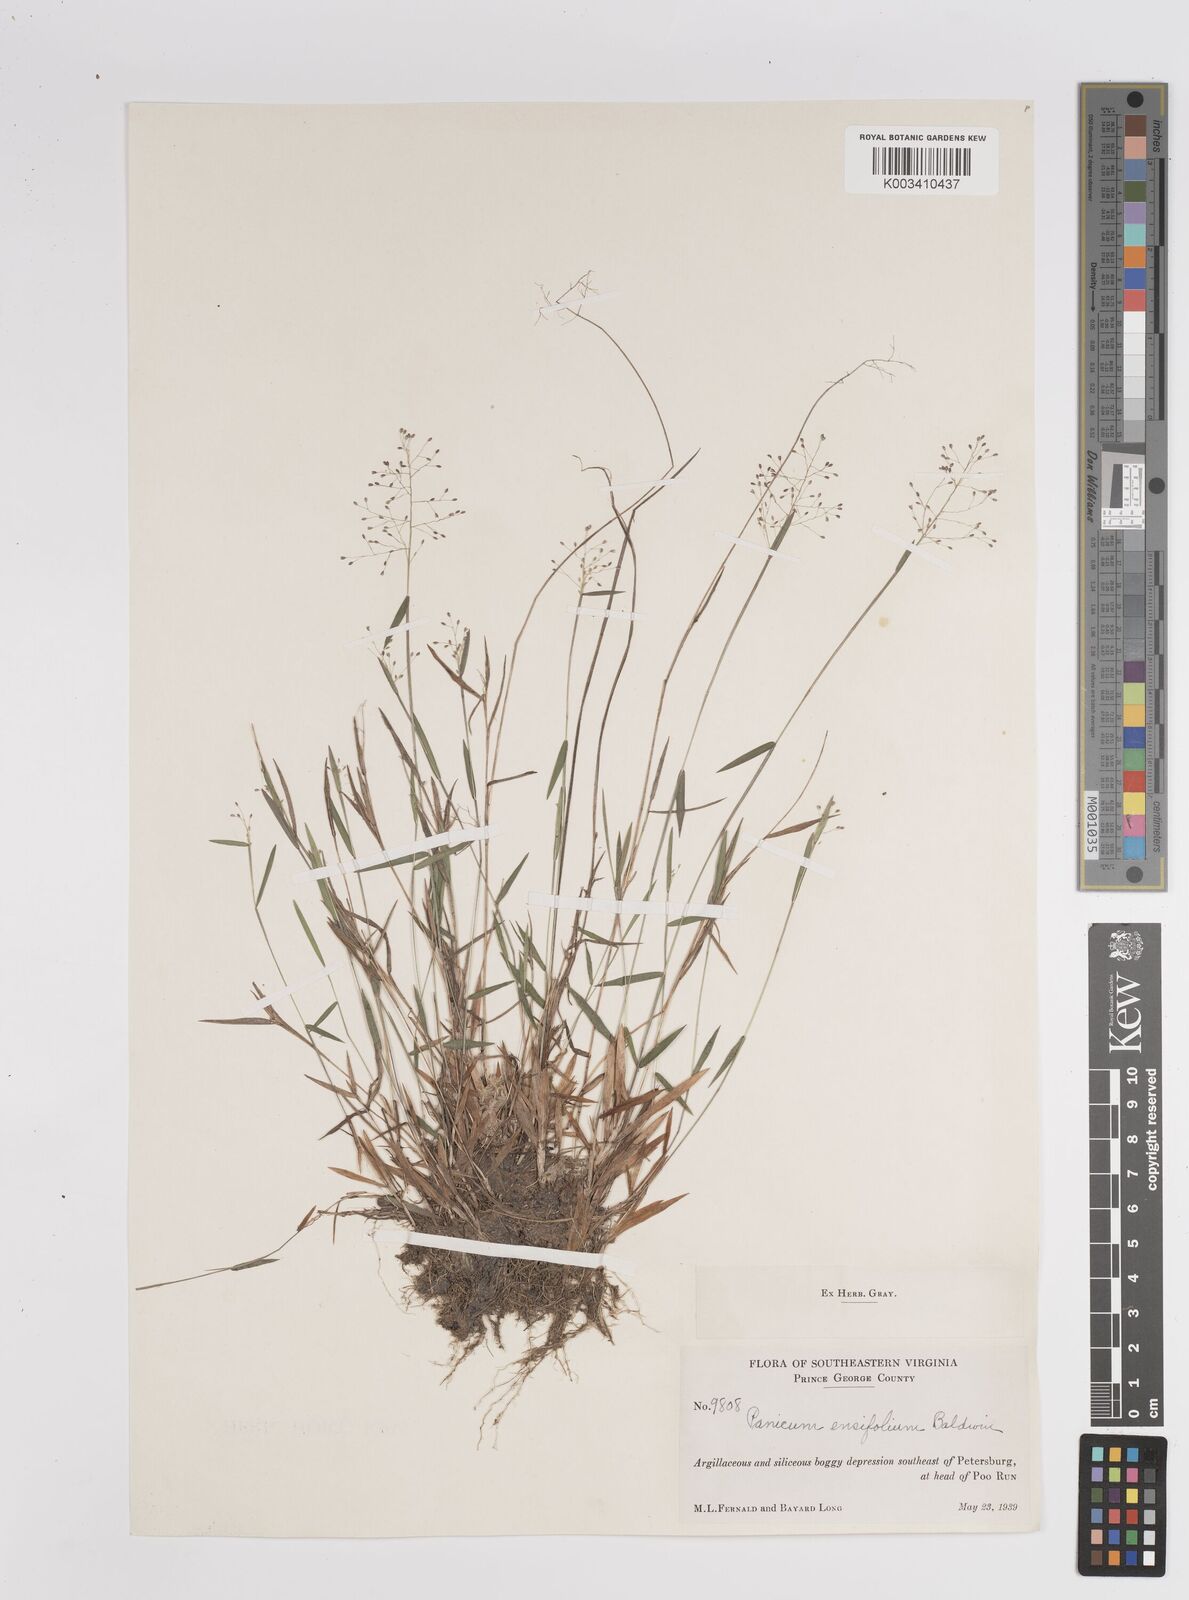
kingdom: Plantae
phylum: Tracheophyta
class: Liliopsida
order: Poales
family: Poaceae
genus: Dichanthelium
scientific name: Dichanthelium ensifolium
